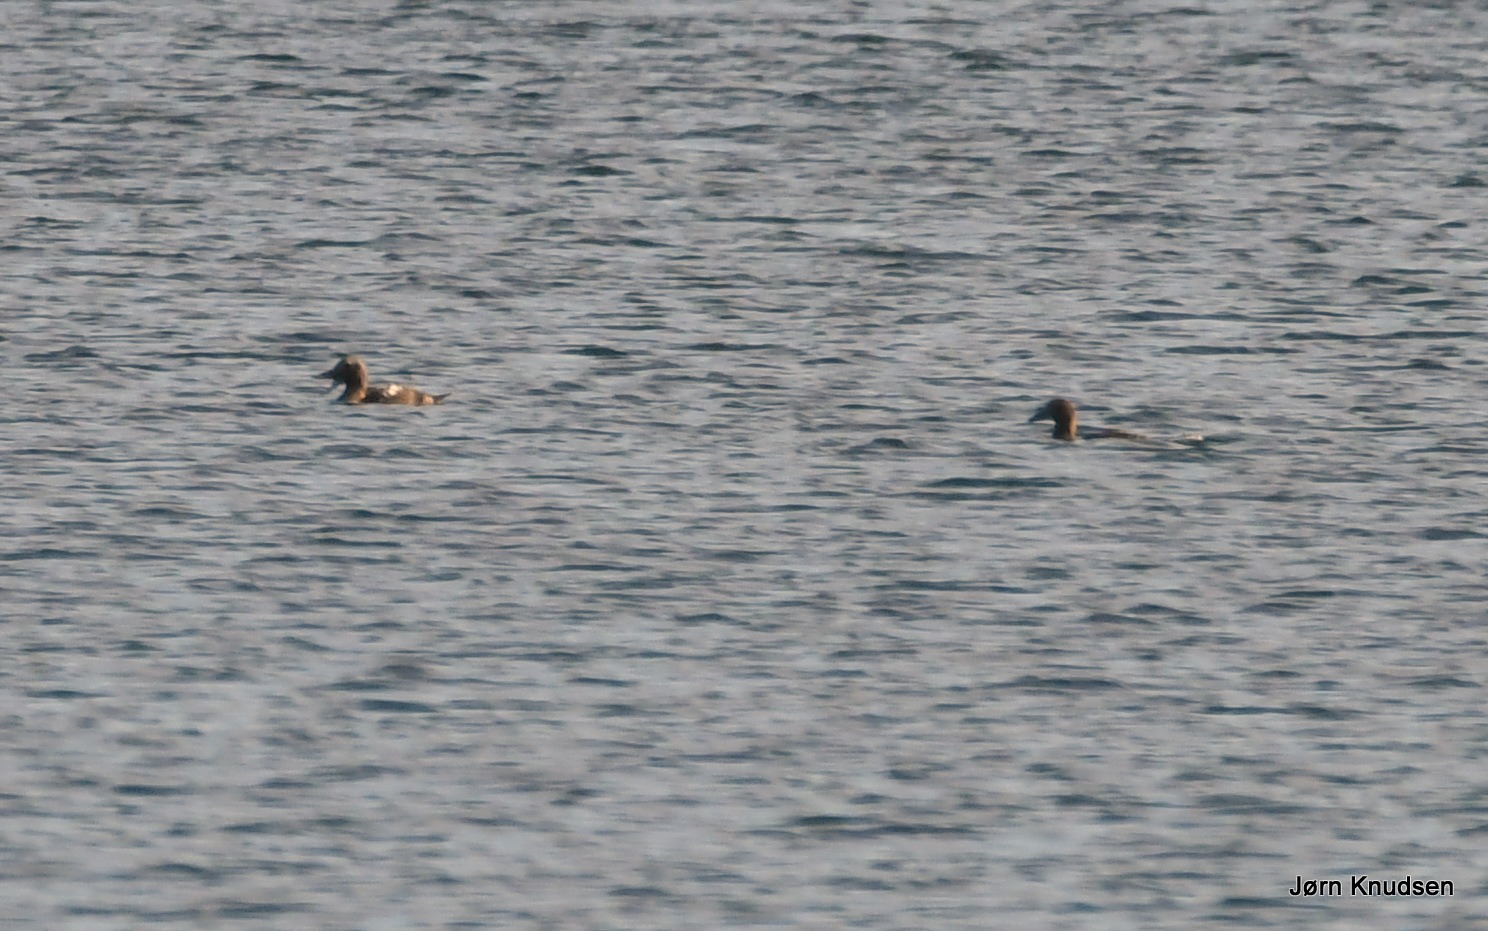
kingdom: Animalia
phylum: Chordata
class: Aves
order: Anseriformes
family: Anatidae
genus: Somateria
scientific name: Somateria mollissima
